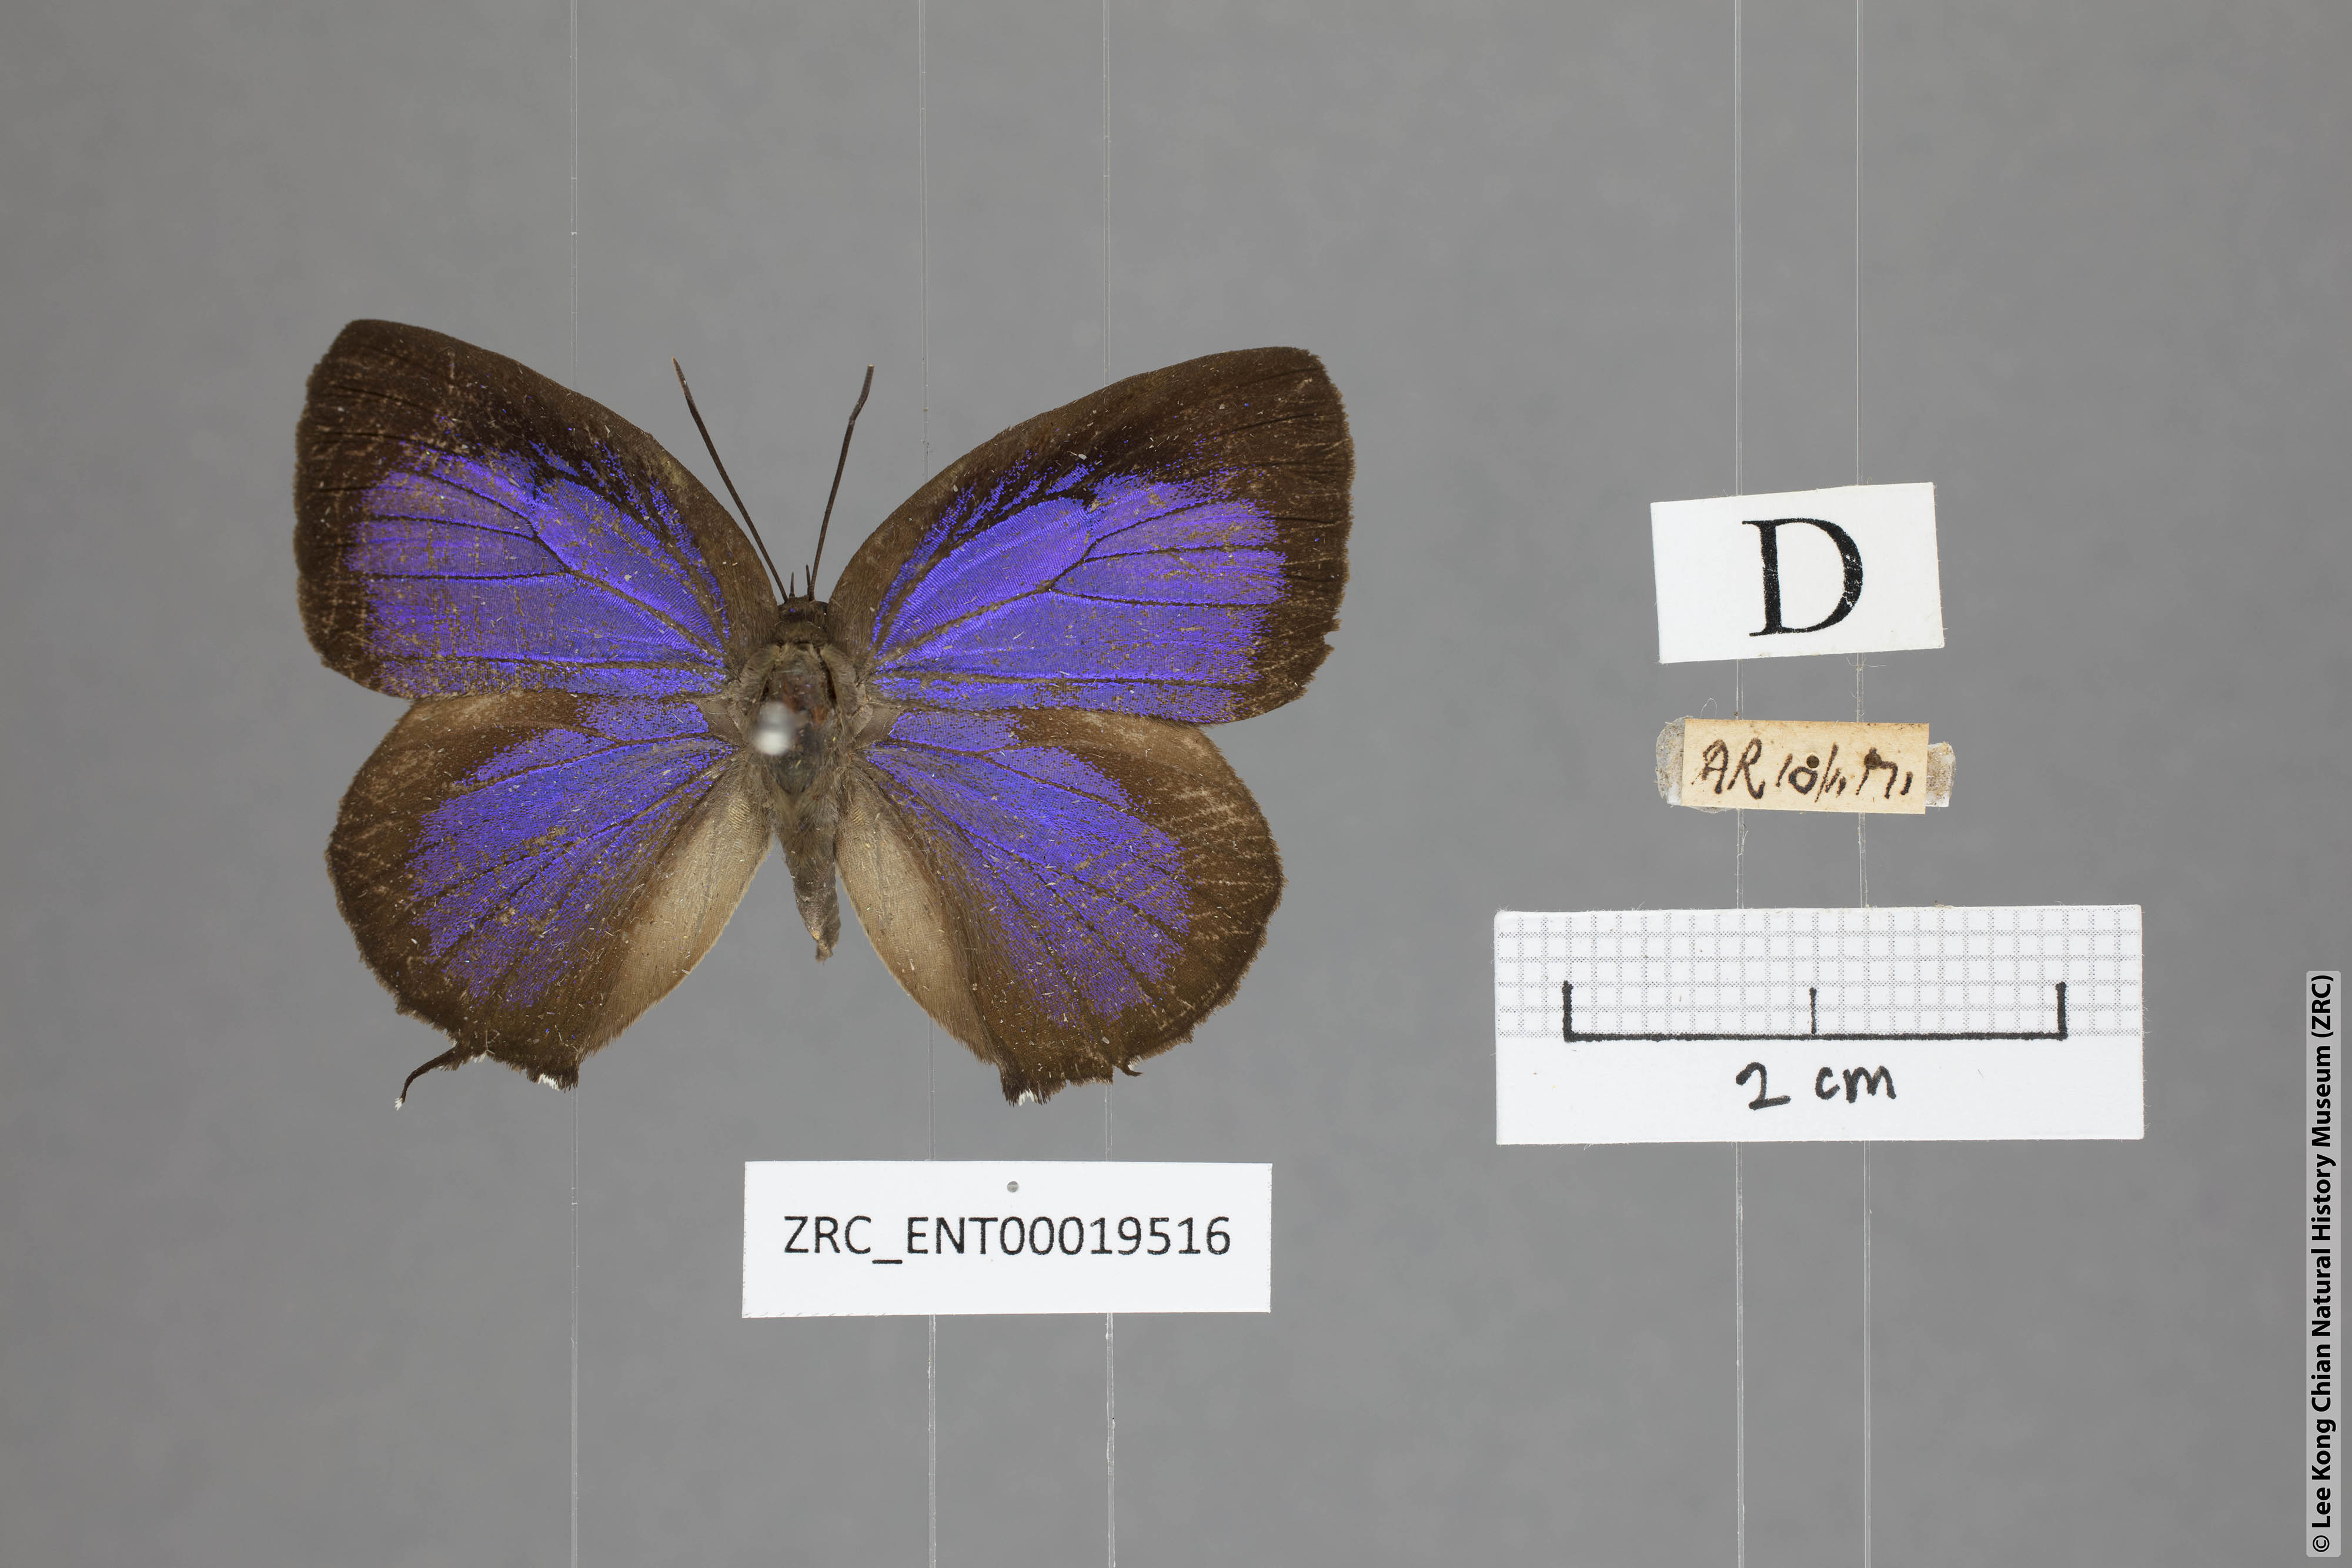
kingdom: Animalia
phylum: Arthropoda
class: Insecta
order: Lepidoptera
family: Lycaenidae
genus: Arhopala
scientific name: Arhopala horsfieldi
